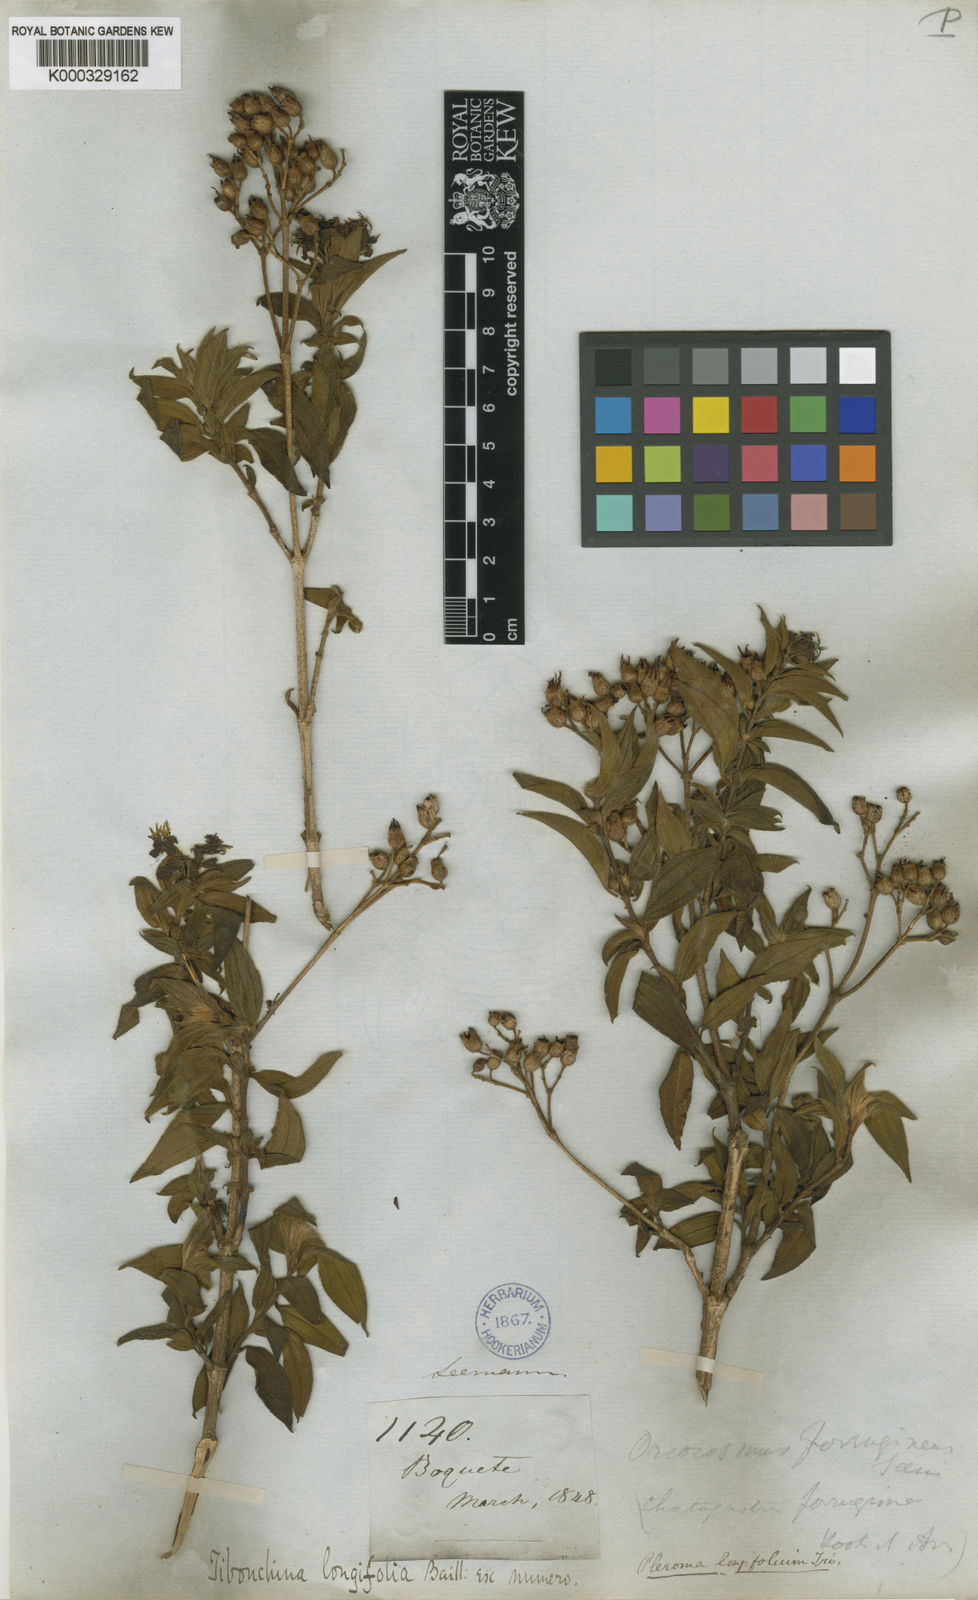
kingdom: Plantae
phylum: Tracheophyta
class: Magnoliopsida
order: Myrtales
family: Melastomataceae
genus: Chaetogastra
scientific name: Chaetogastra longifolia
